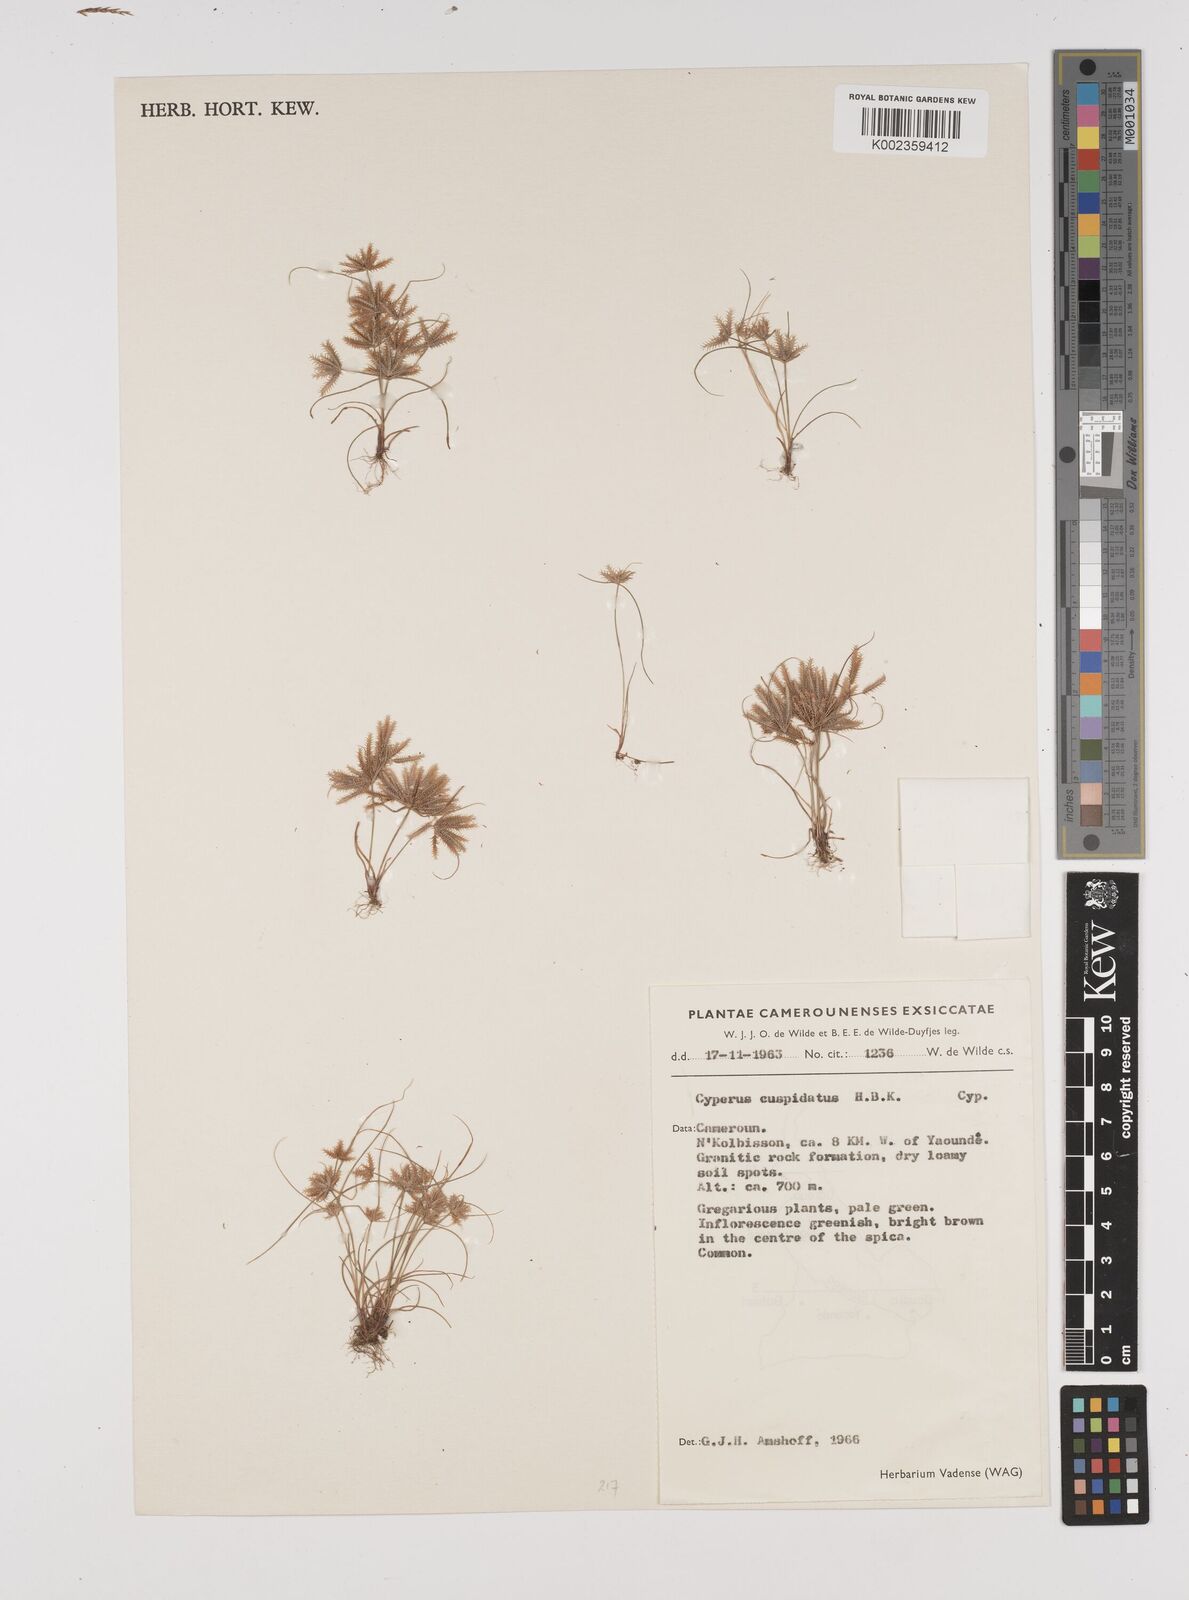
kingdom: Plantae
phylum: Tracheophyta
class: Liliopsida
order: Poales
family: Cyperaceae
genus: Cyperus
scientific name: Cyperus cuspidatus
